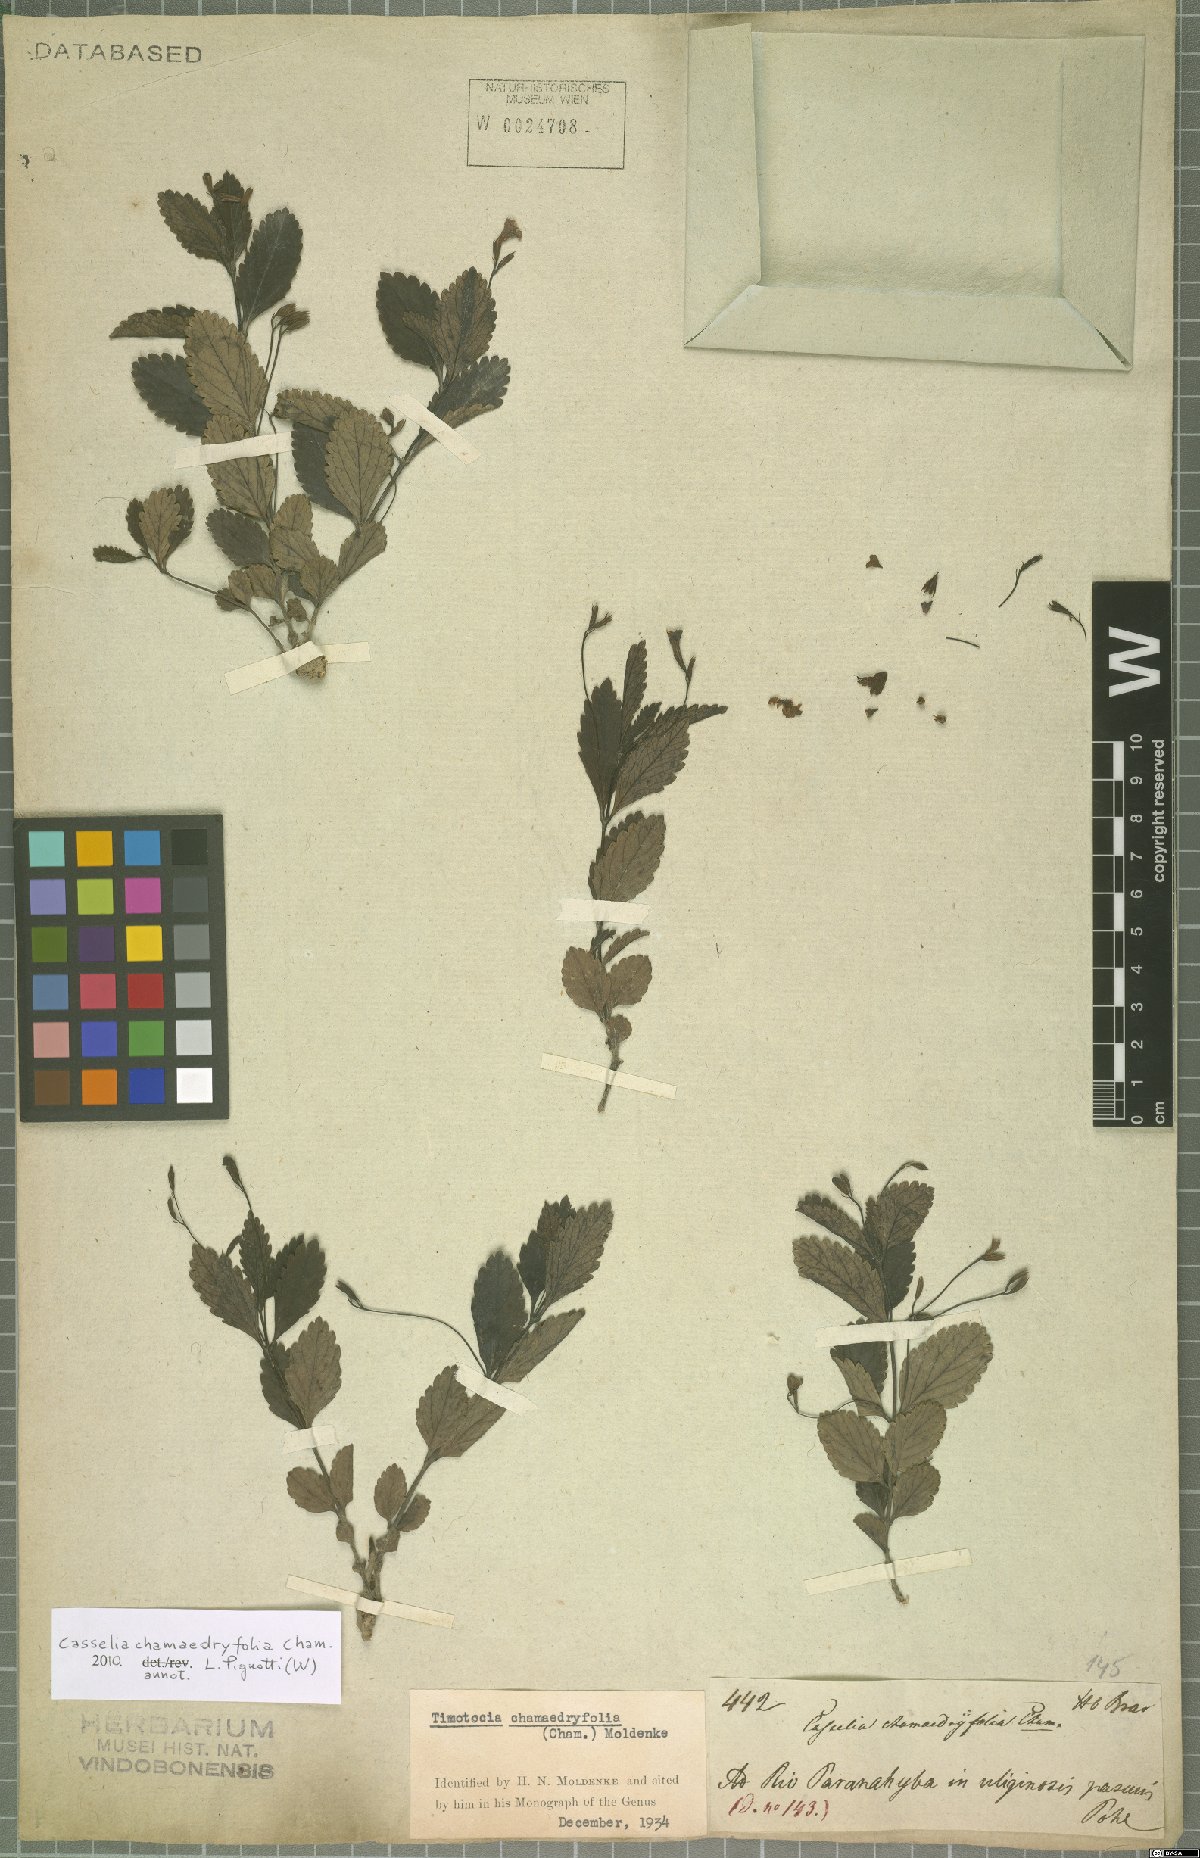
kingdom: Plantae
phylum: Tracheophyta
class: Magnoliopsida
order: Lamiales
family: Verbenaceae
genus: Casselia
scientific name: Casselia chamaedryfolia
